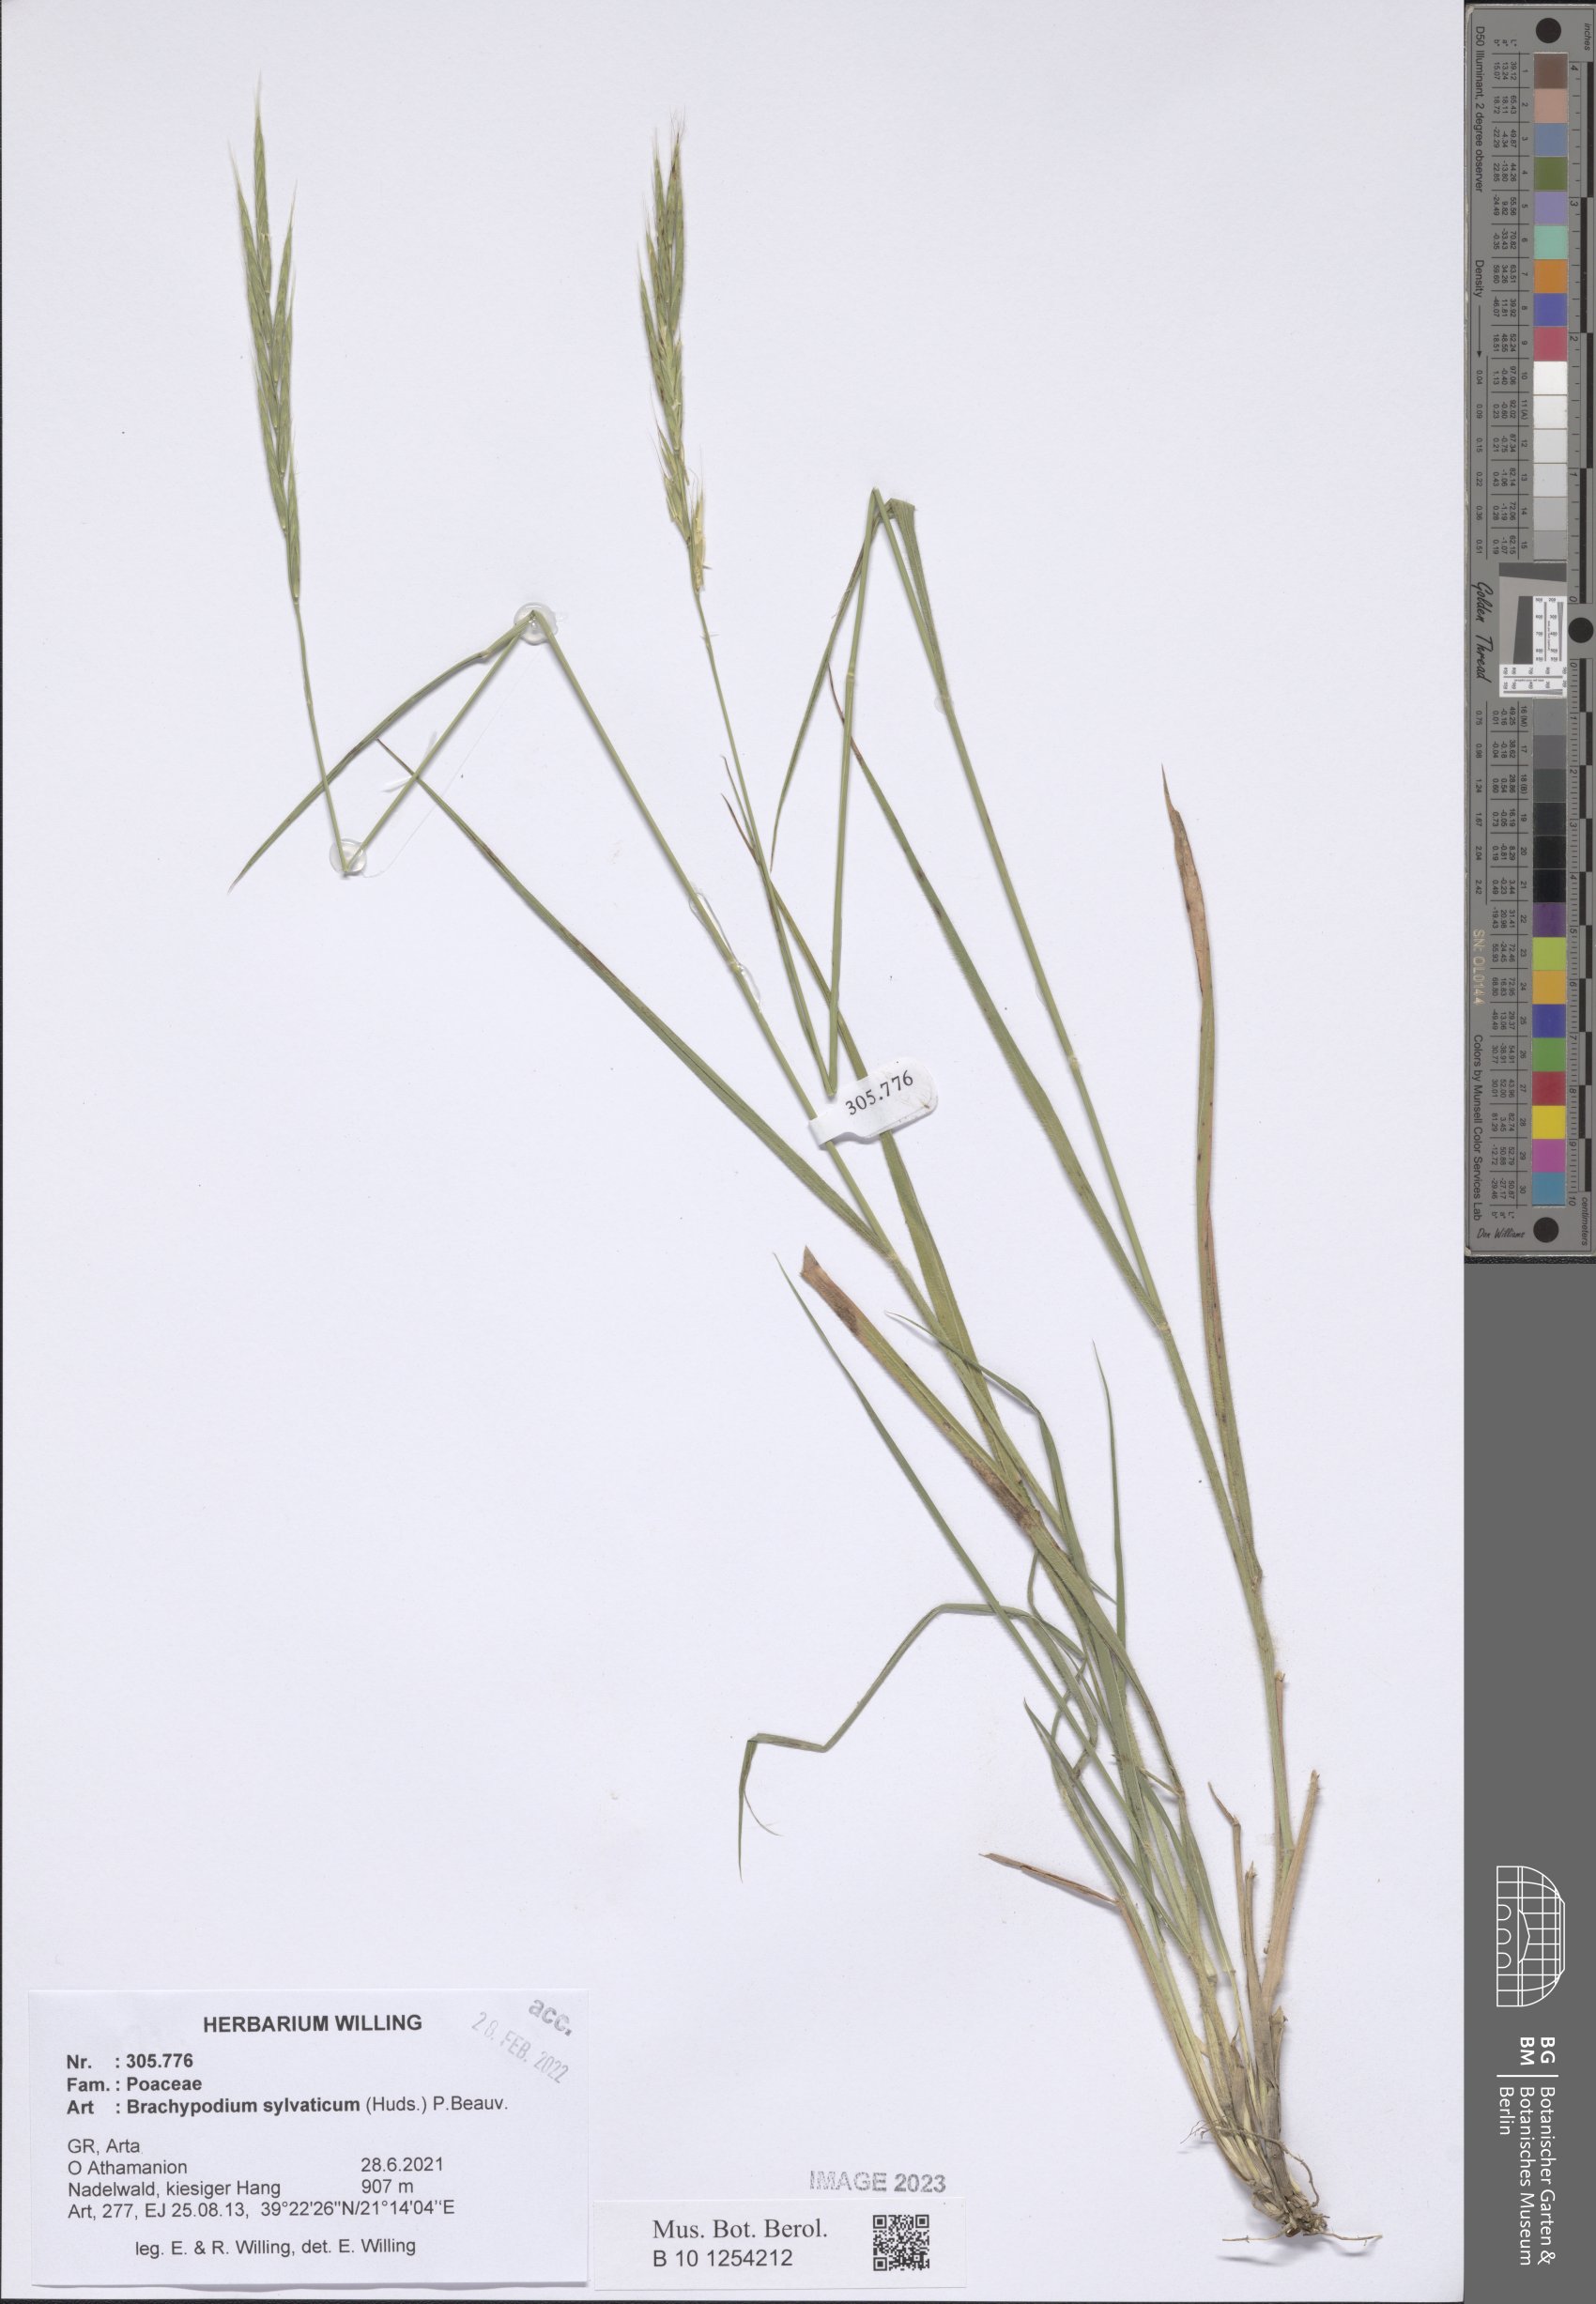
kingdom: Plantae
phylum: Tracheophyta
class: Liliopsida
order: Poales
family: Poaceae
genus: Brachypodium
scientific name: Brachypodium sylvaticum
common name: False-brome
